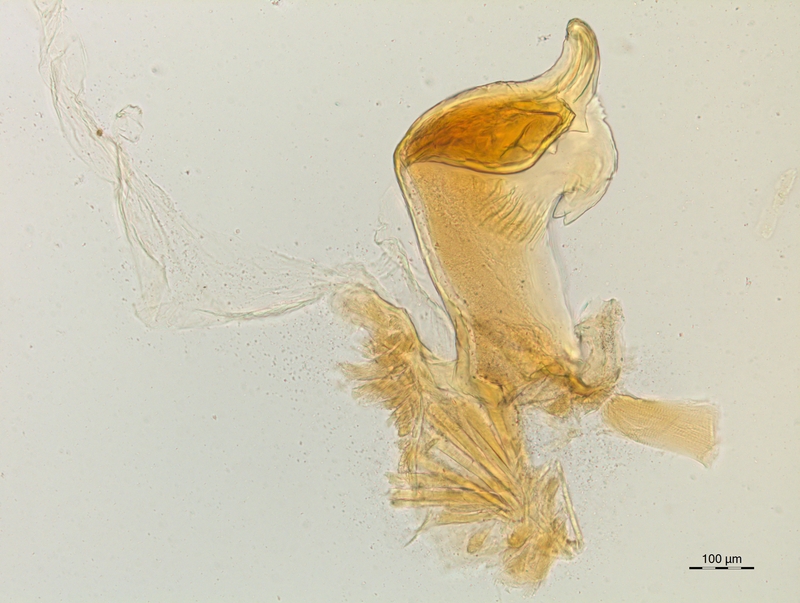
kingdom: Animalia
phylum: Arthropoda
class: Diplopoda
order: Chordeumatida
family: Craspedosomatidae
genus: Craspedosoma
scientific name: Craspedosoma rawlinsii
